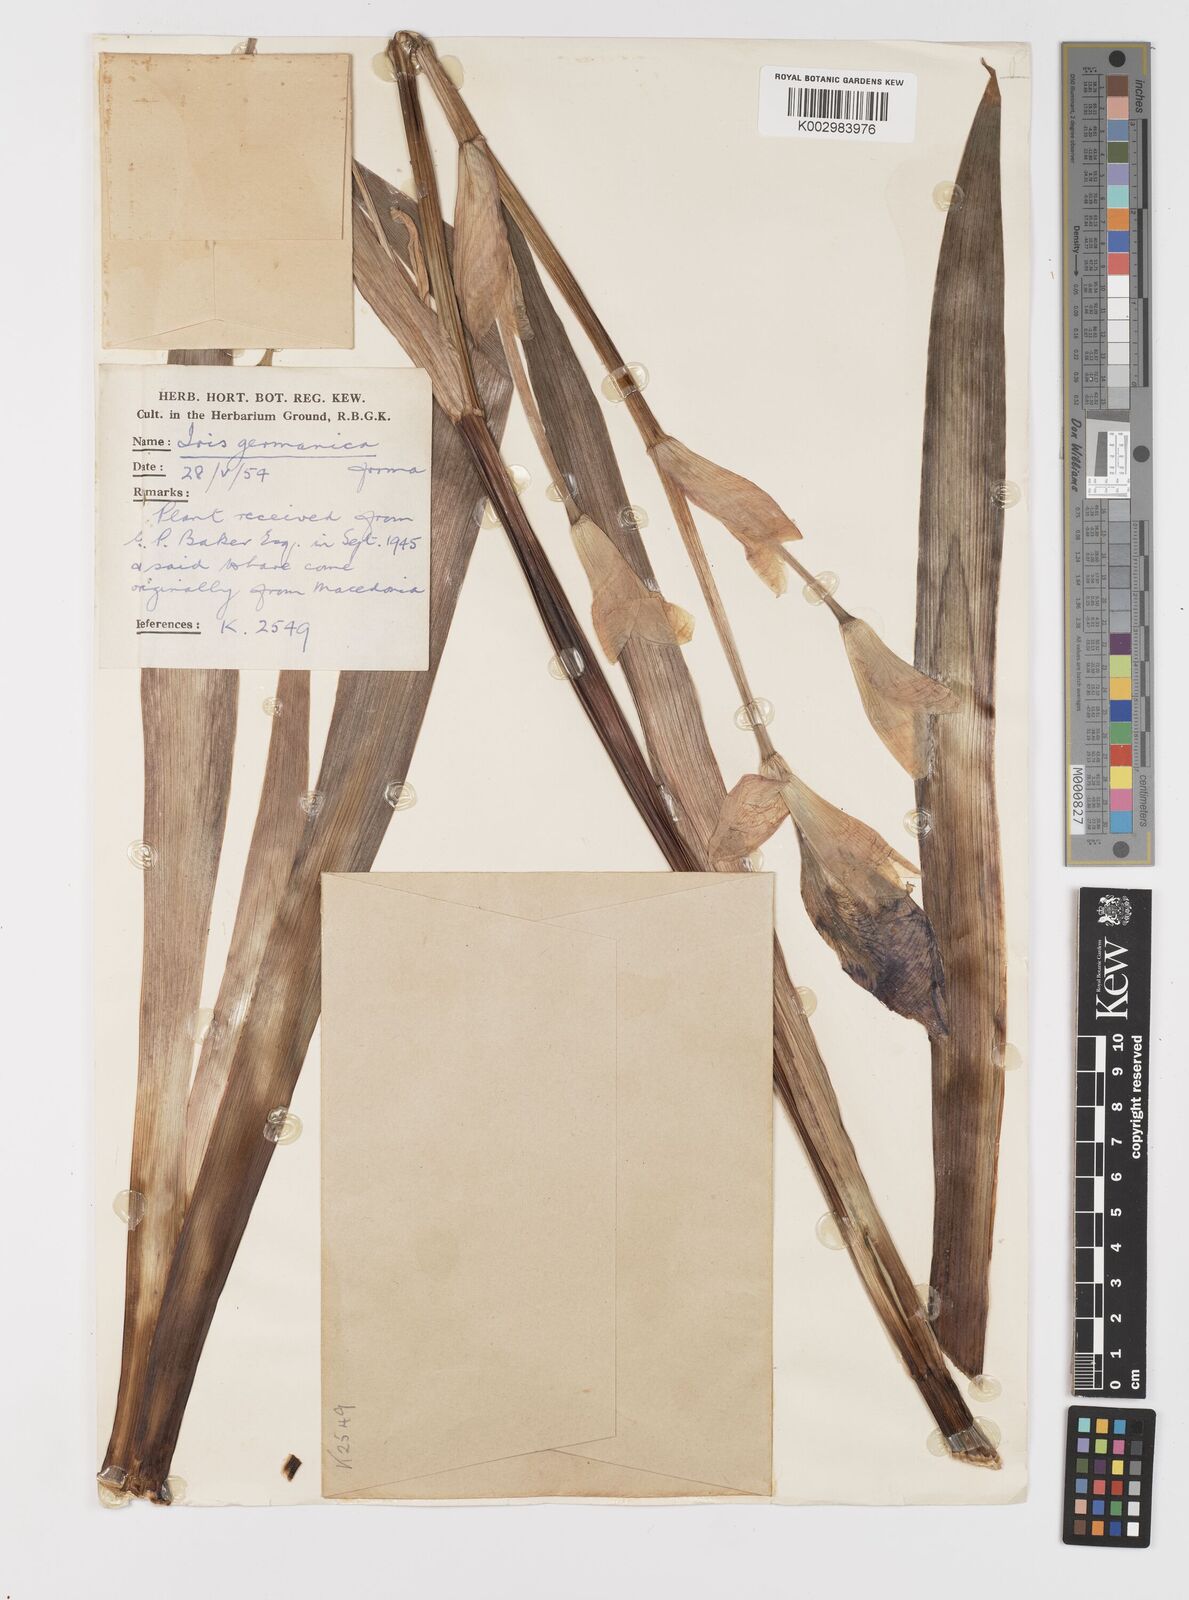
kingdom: Plantae
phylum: Tracheophyta
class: Liliopsida
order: Asparagales
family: Iridaceae
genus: Iris
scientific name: Iris germanica
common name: German iris
